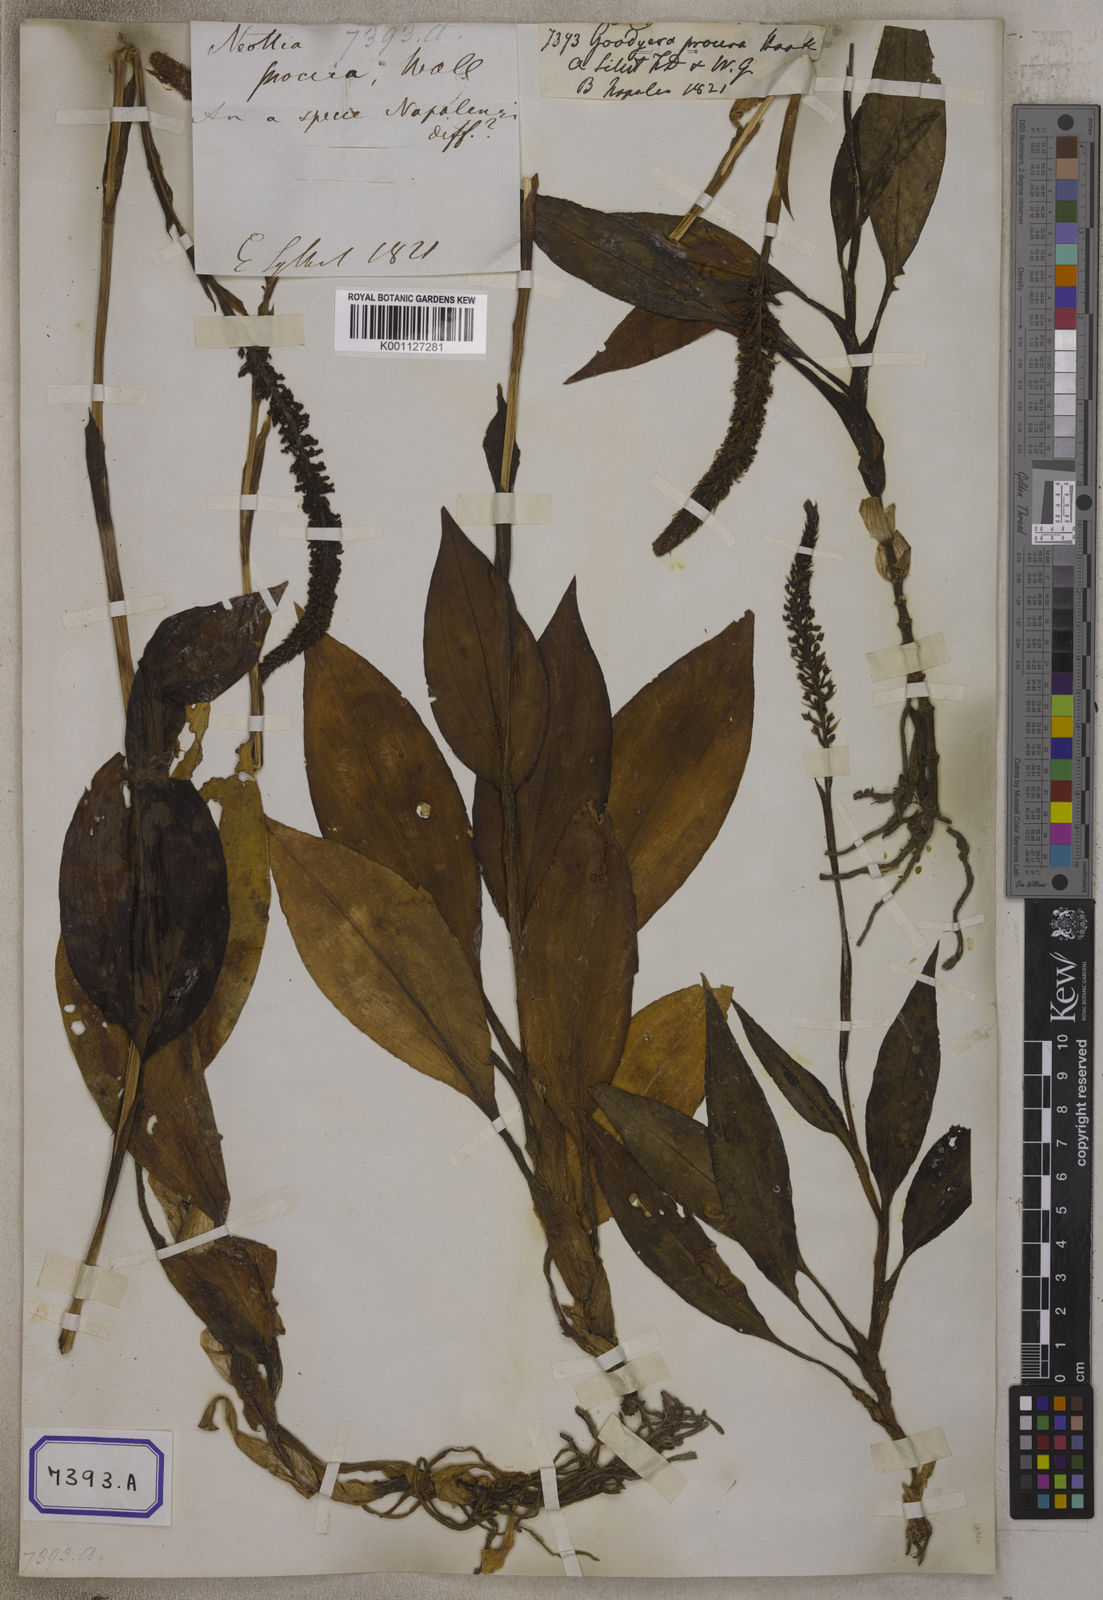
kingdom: Plantae
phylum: Tracheophyta
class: Liliopsida
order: Asparagales
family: Orchidaceae
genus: Goodyera
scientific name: Goodyera procera
